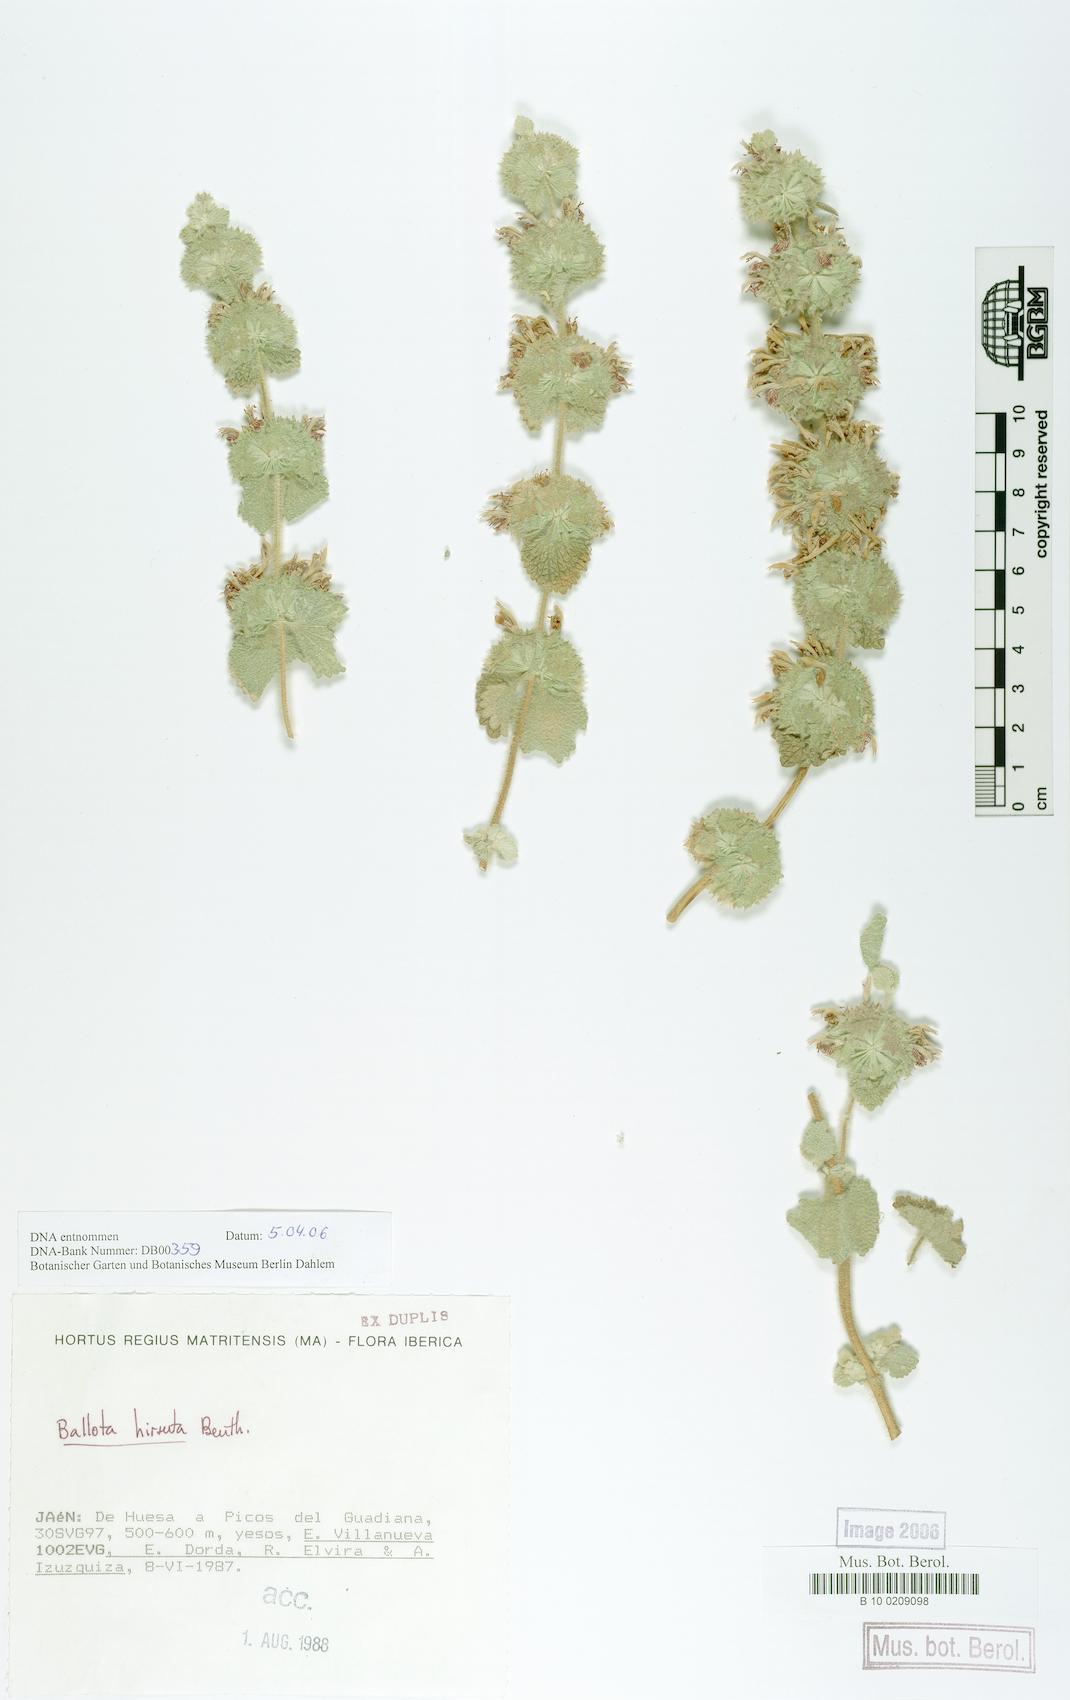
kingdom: Plantae
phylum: Tracheophyta
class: Magnoliopsida
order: Lamiales
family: Lamiaceae
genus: Ballota
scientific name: Ballota hirsuta
